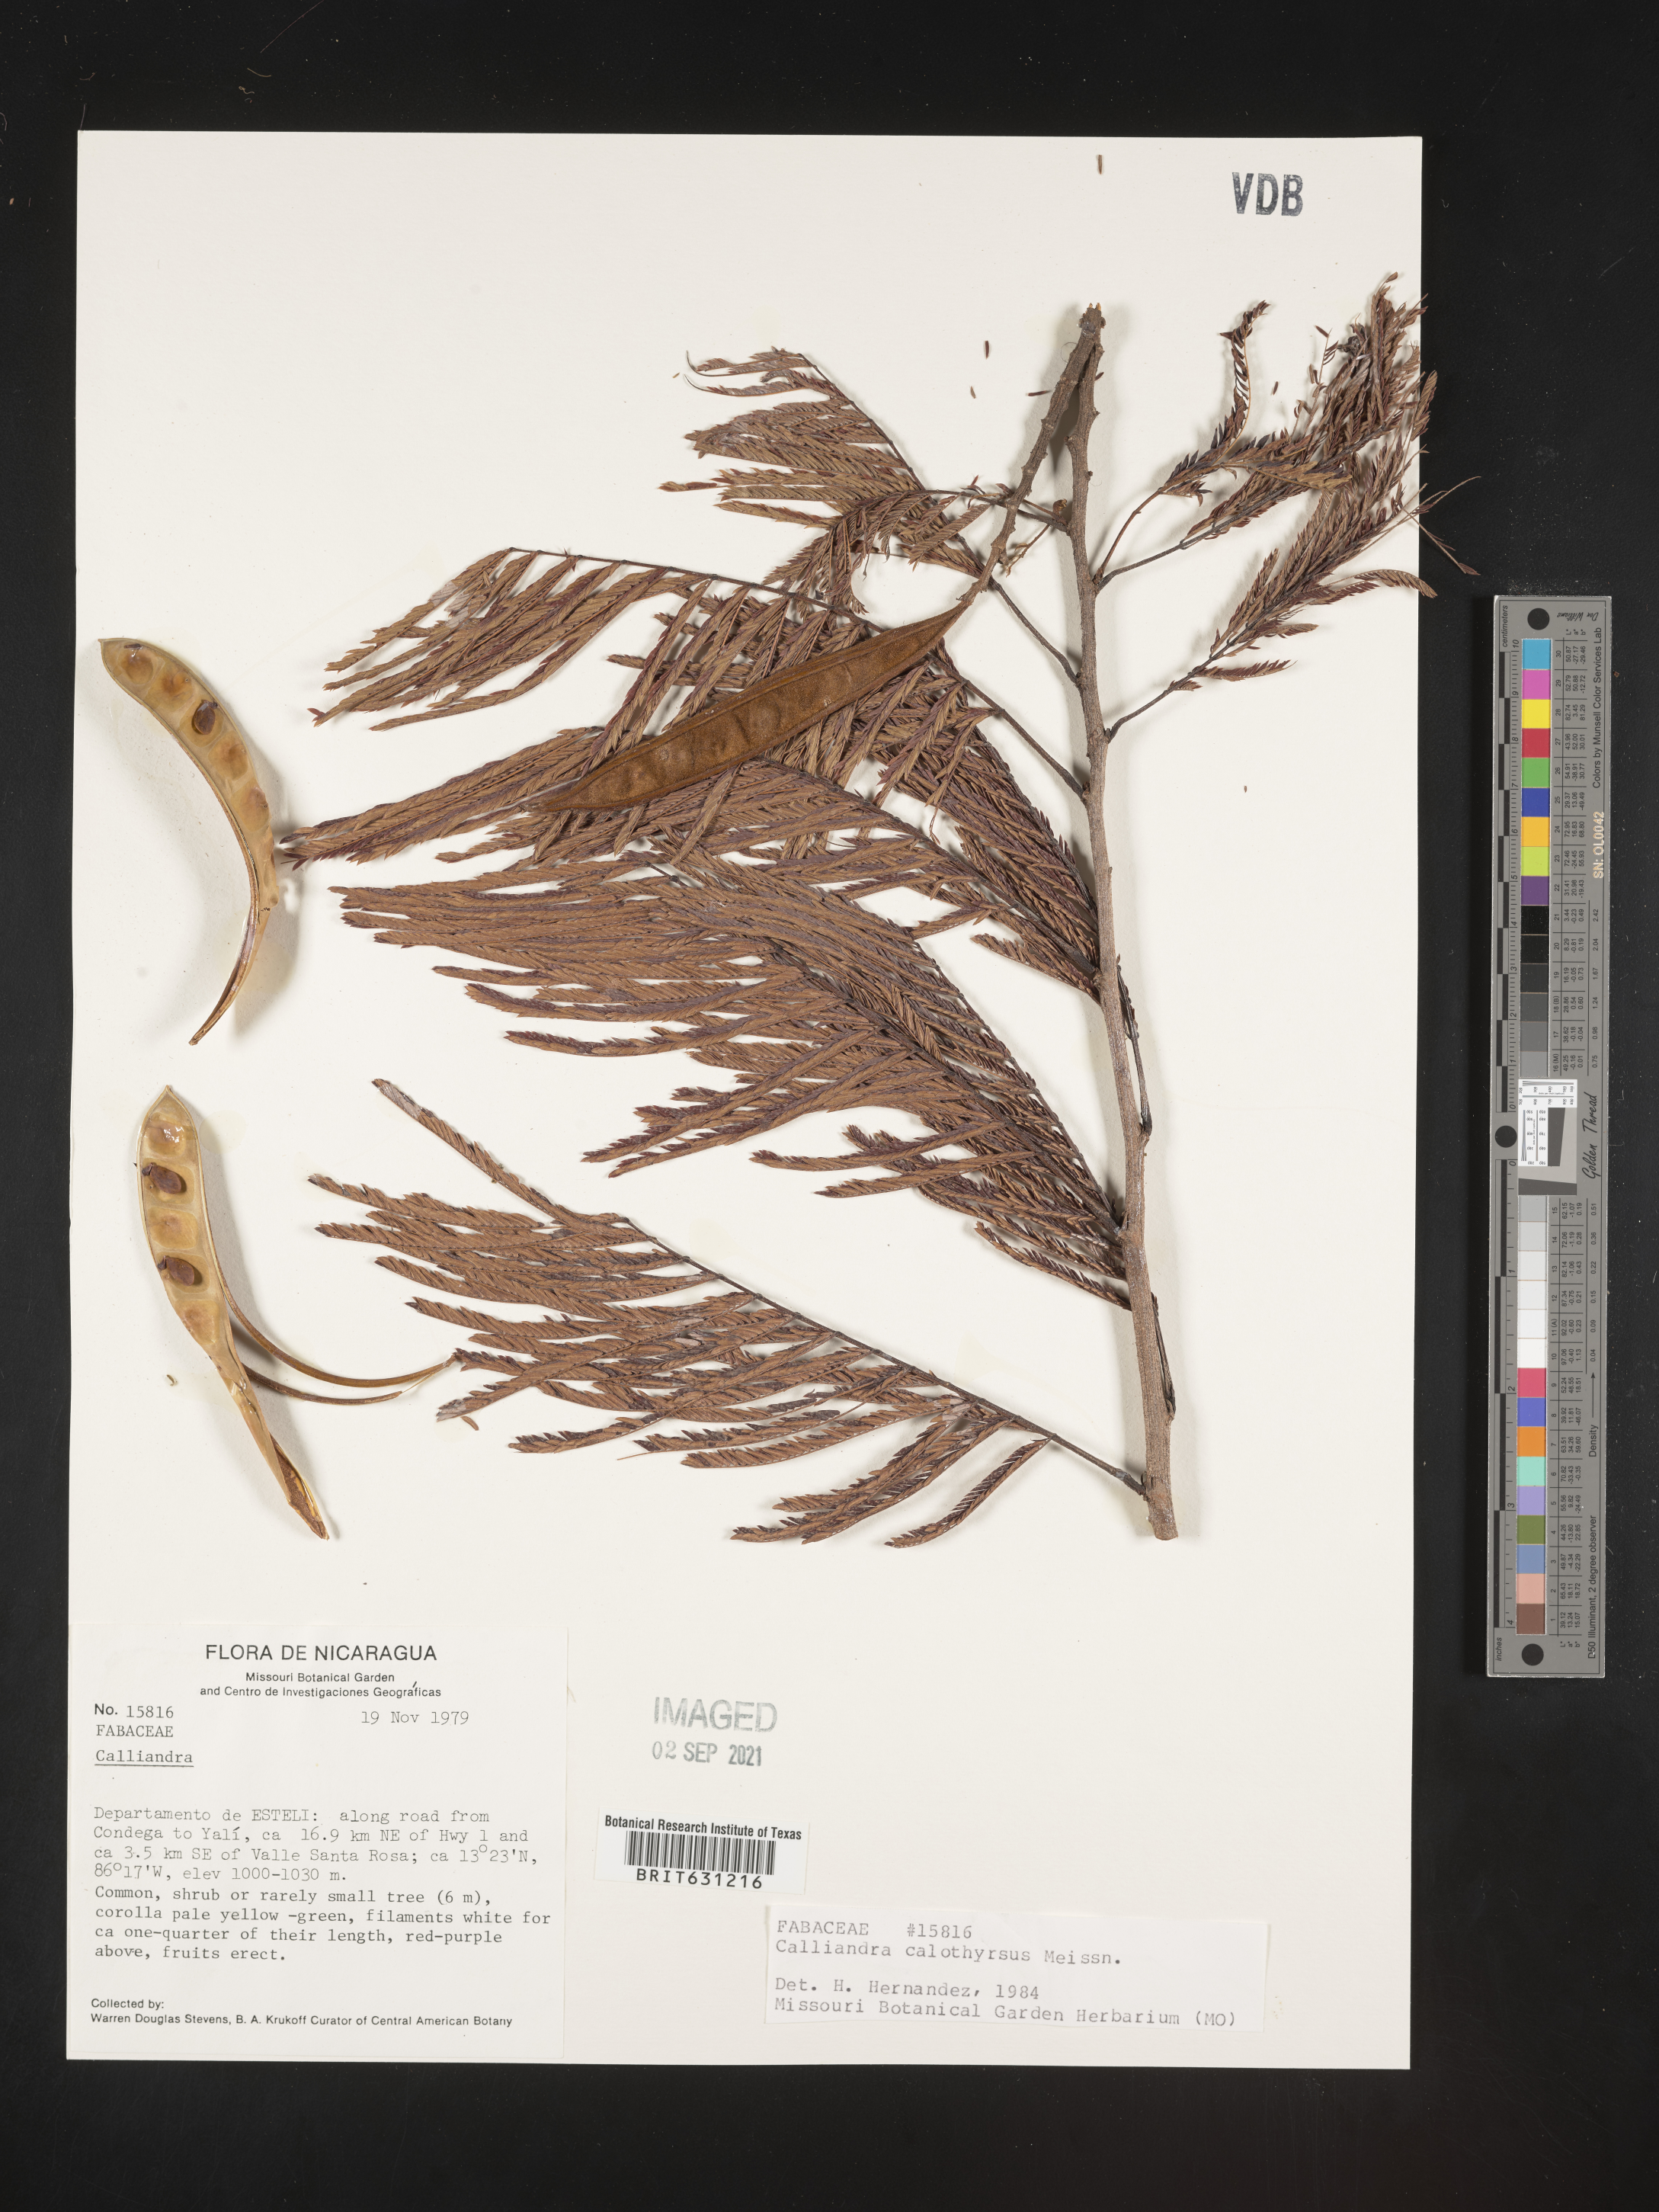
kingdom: Plantae
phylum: Tracheophyta
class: Magnoliopsida
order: Fabales
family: Fabaceae
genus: Calliandra
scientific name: Calliandra houstoniana
